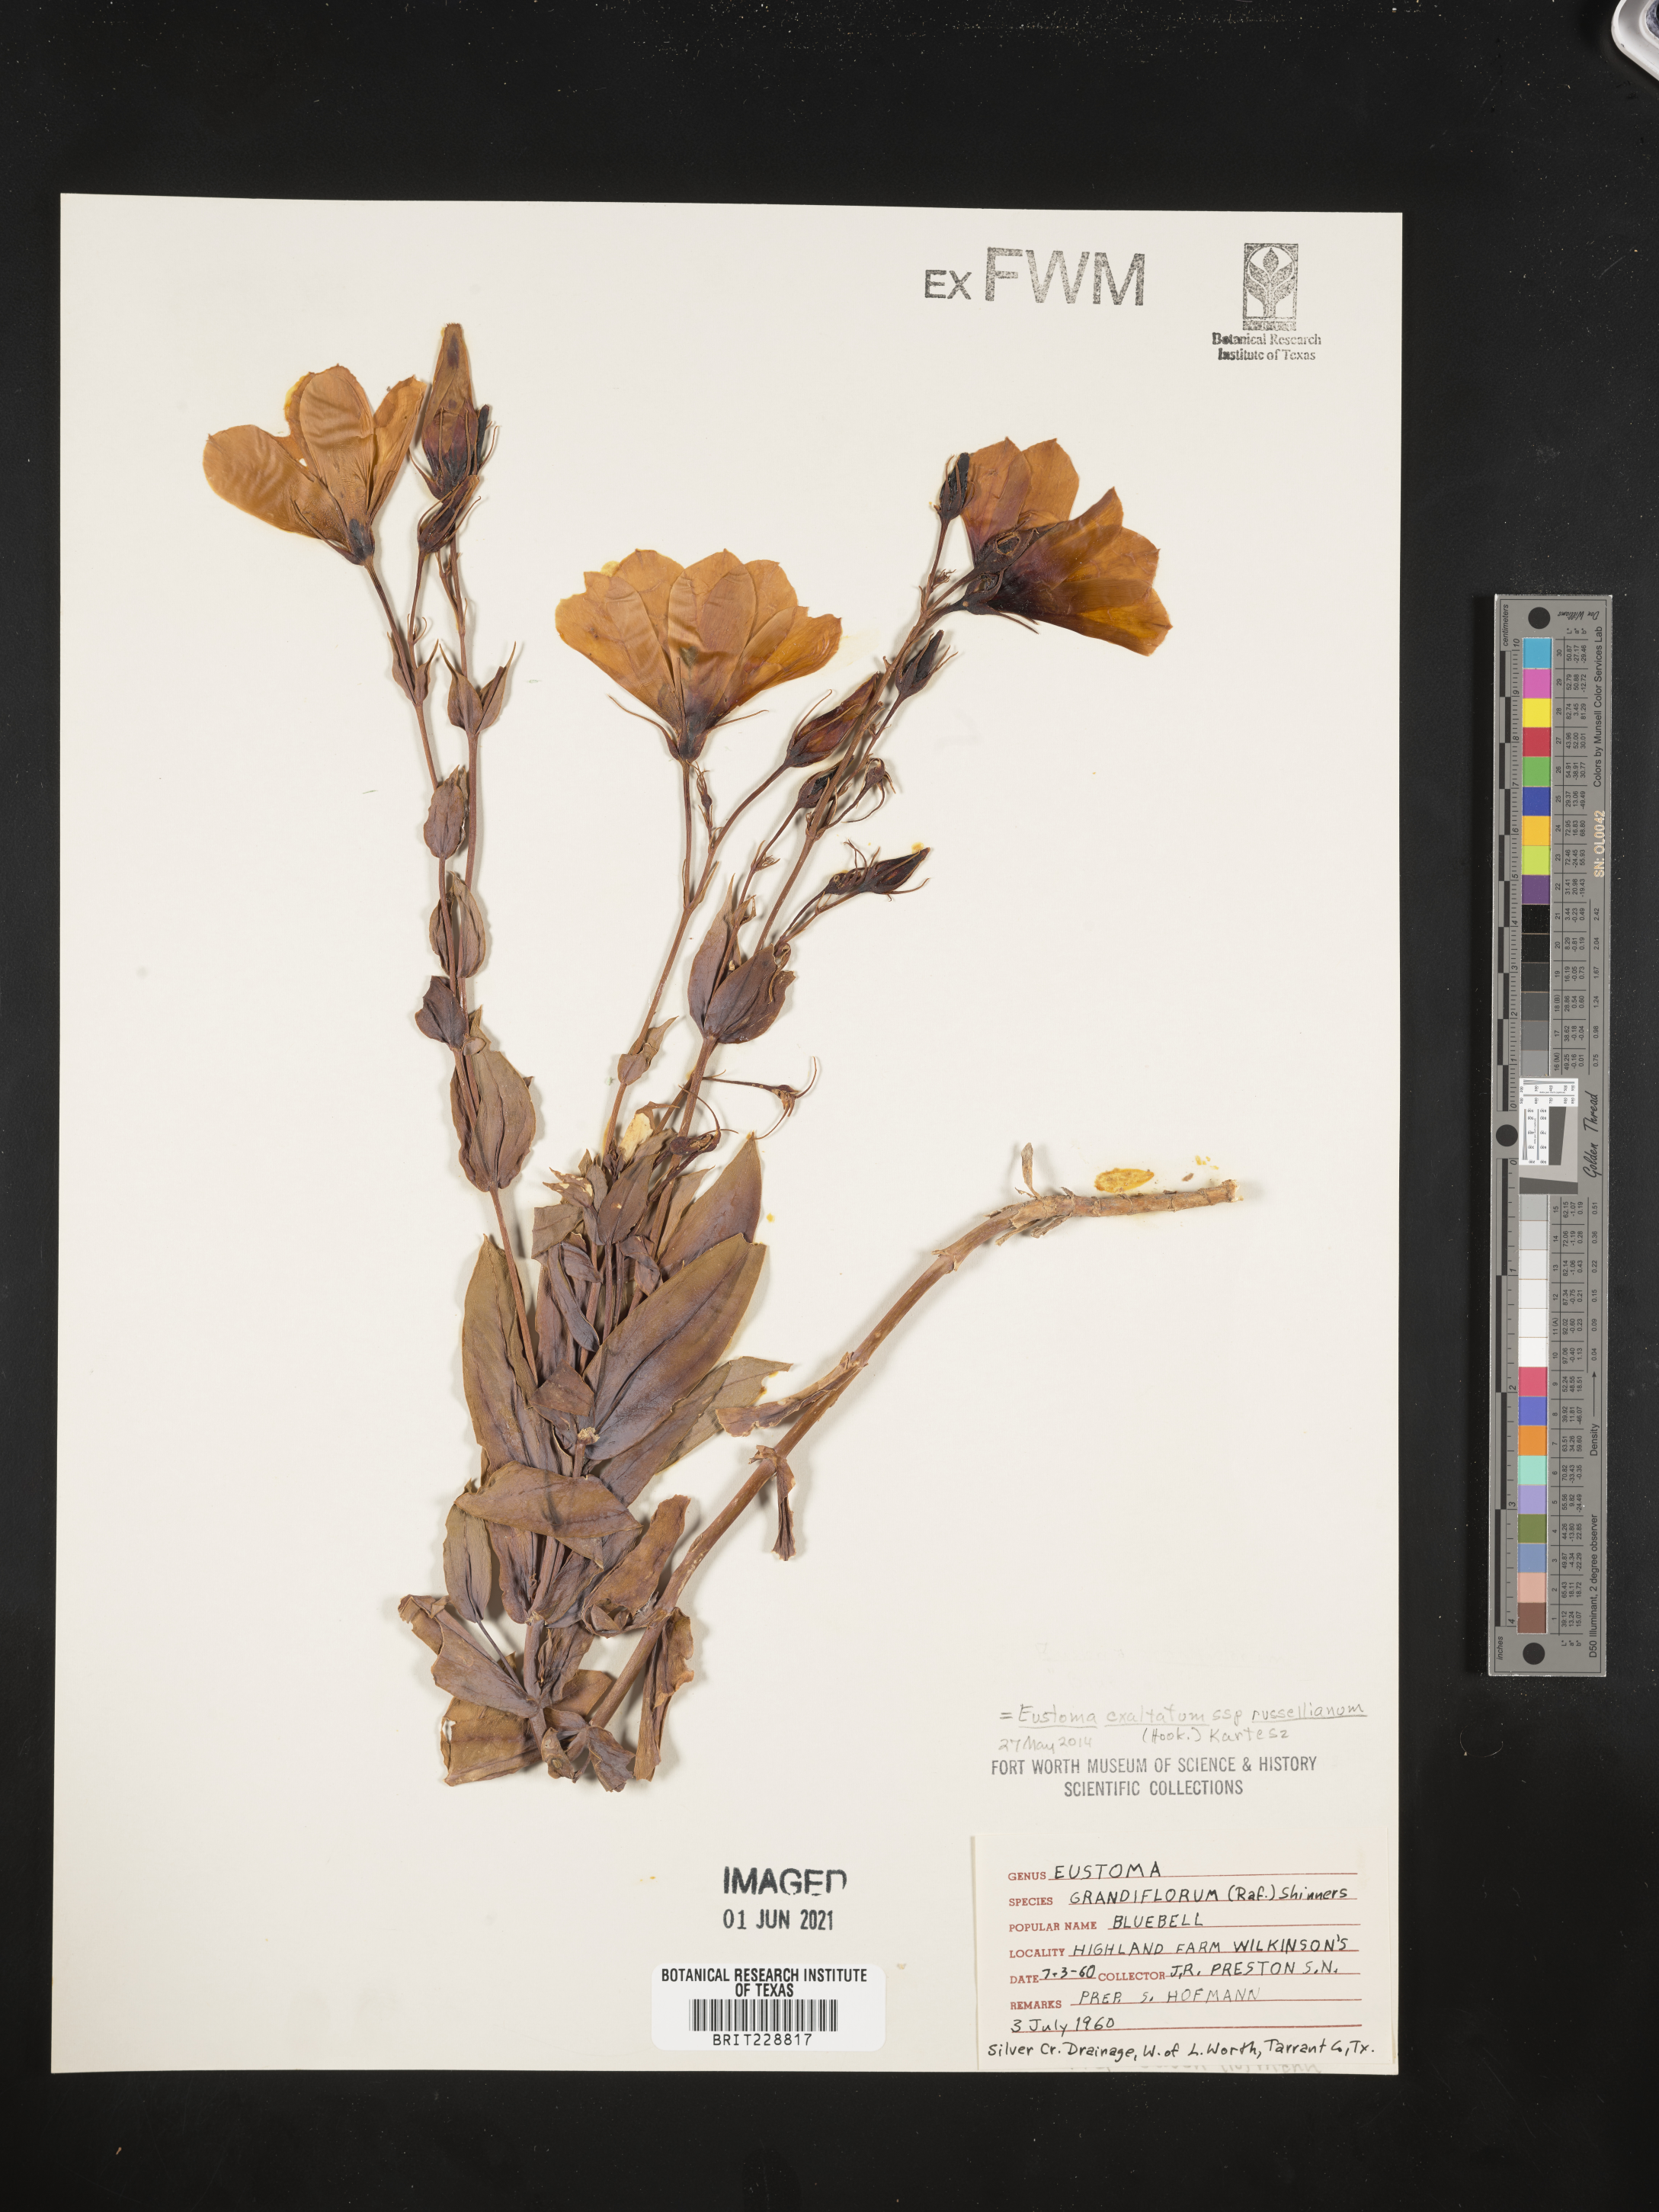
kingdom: Plantae
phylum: Tracheophyta
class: Magnoliopsida
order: Gentianales
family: Gentianaceae
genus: Eustoma
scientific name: Eustoma russellianum
